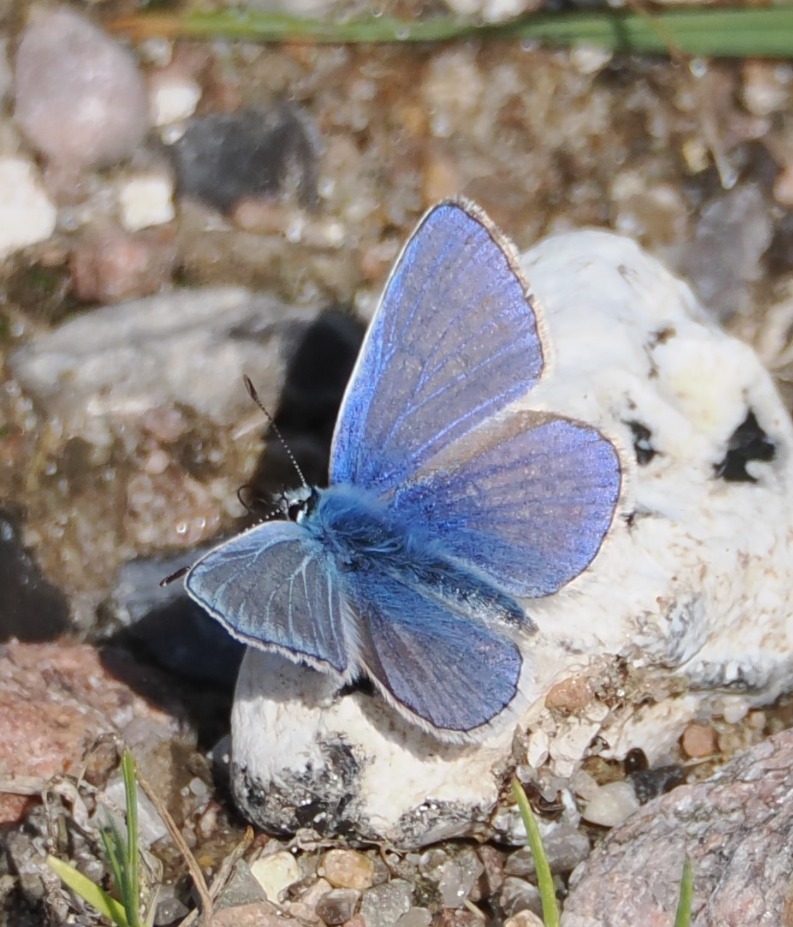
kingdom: Animalia
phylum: Arthropoda
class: Insecta
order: Lepidoptera
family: Lycaenidae
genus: Polyommatus
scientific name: Polyommatus icarus
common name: Almindelig blåfugl
